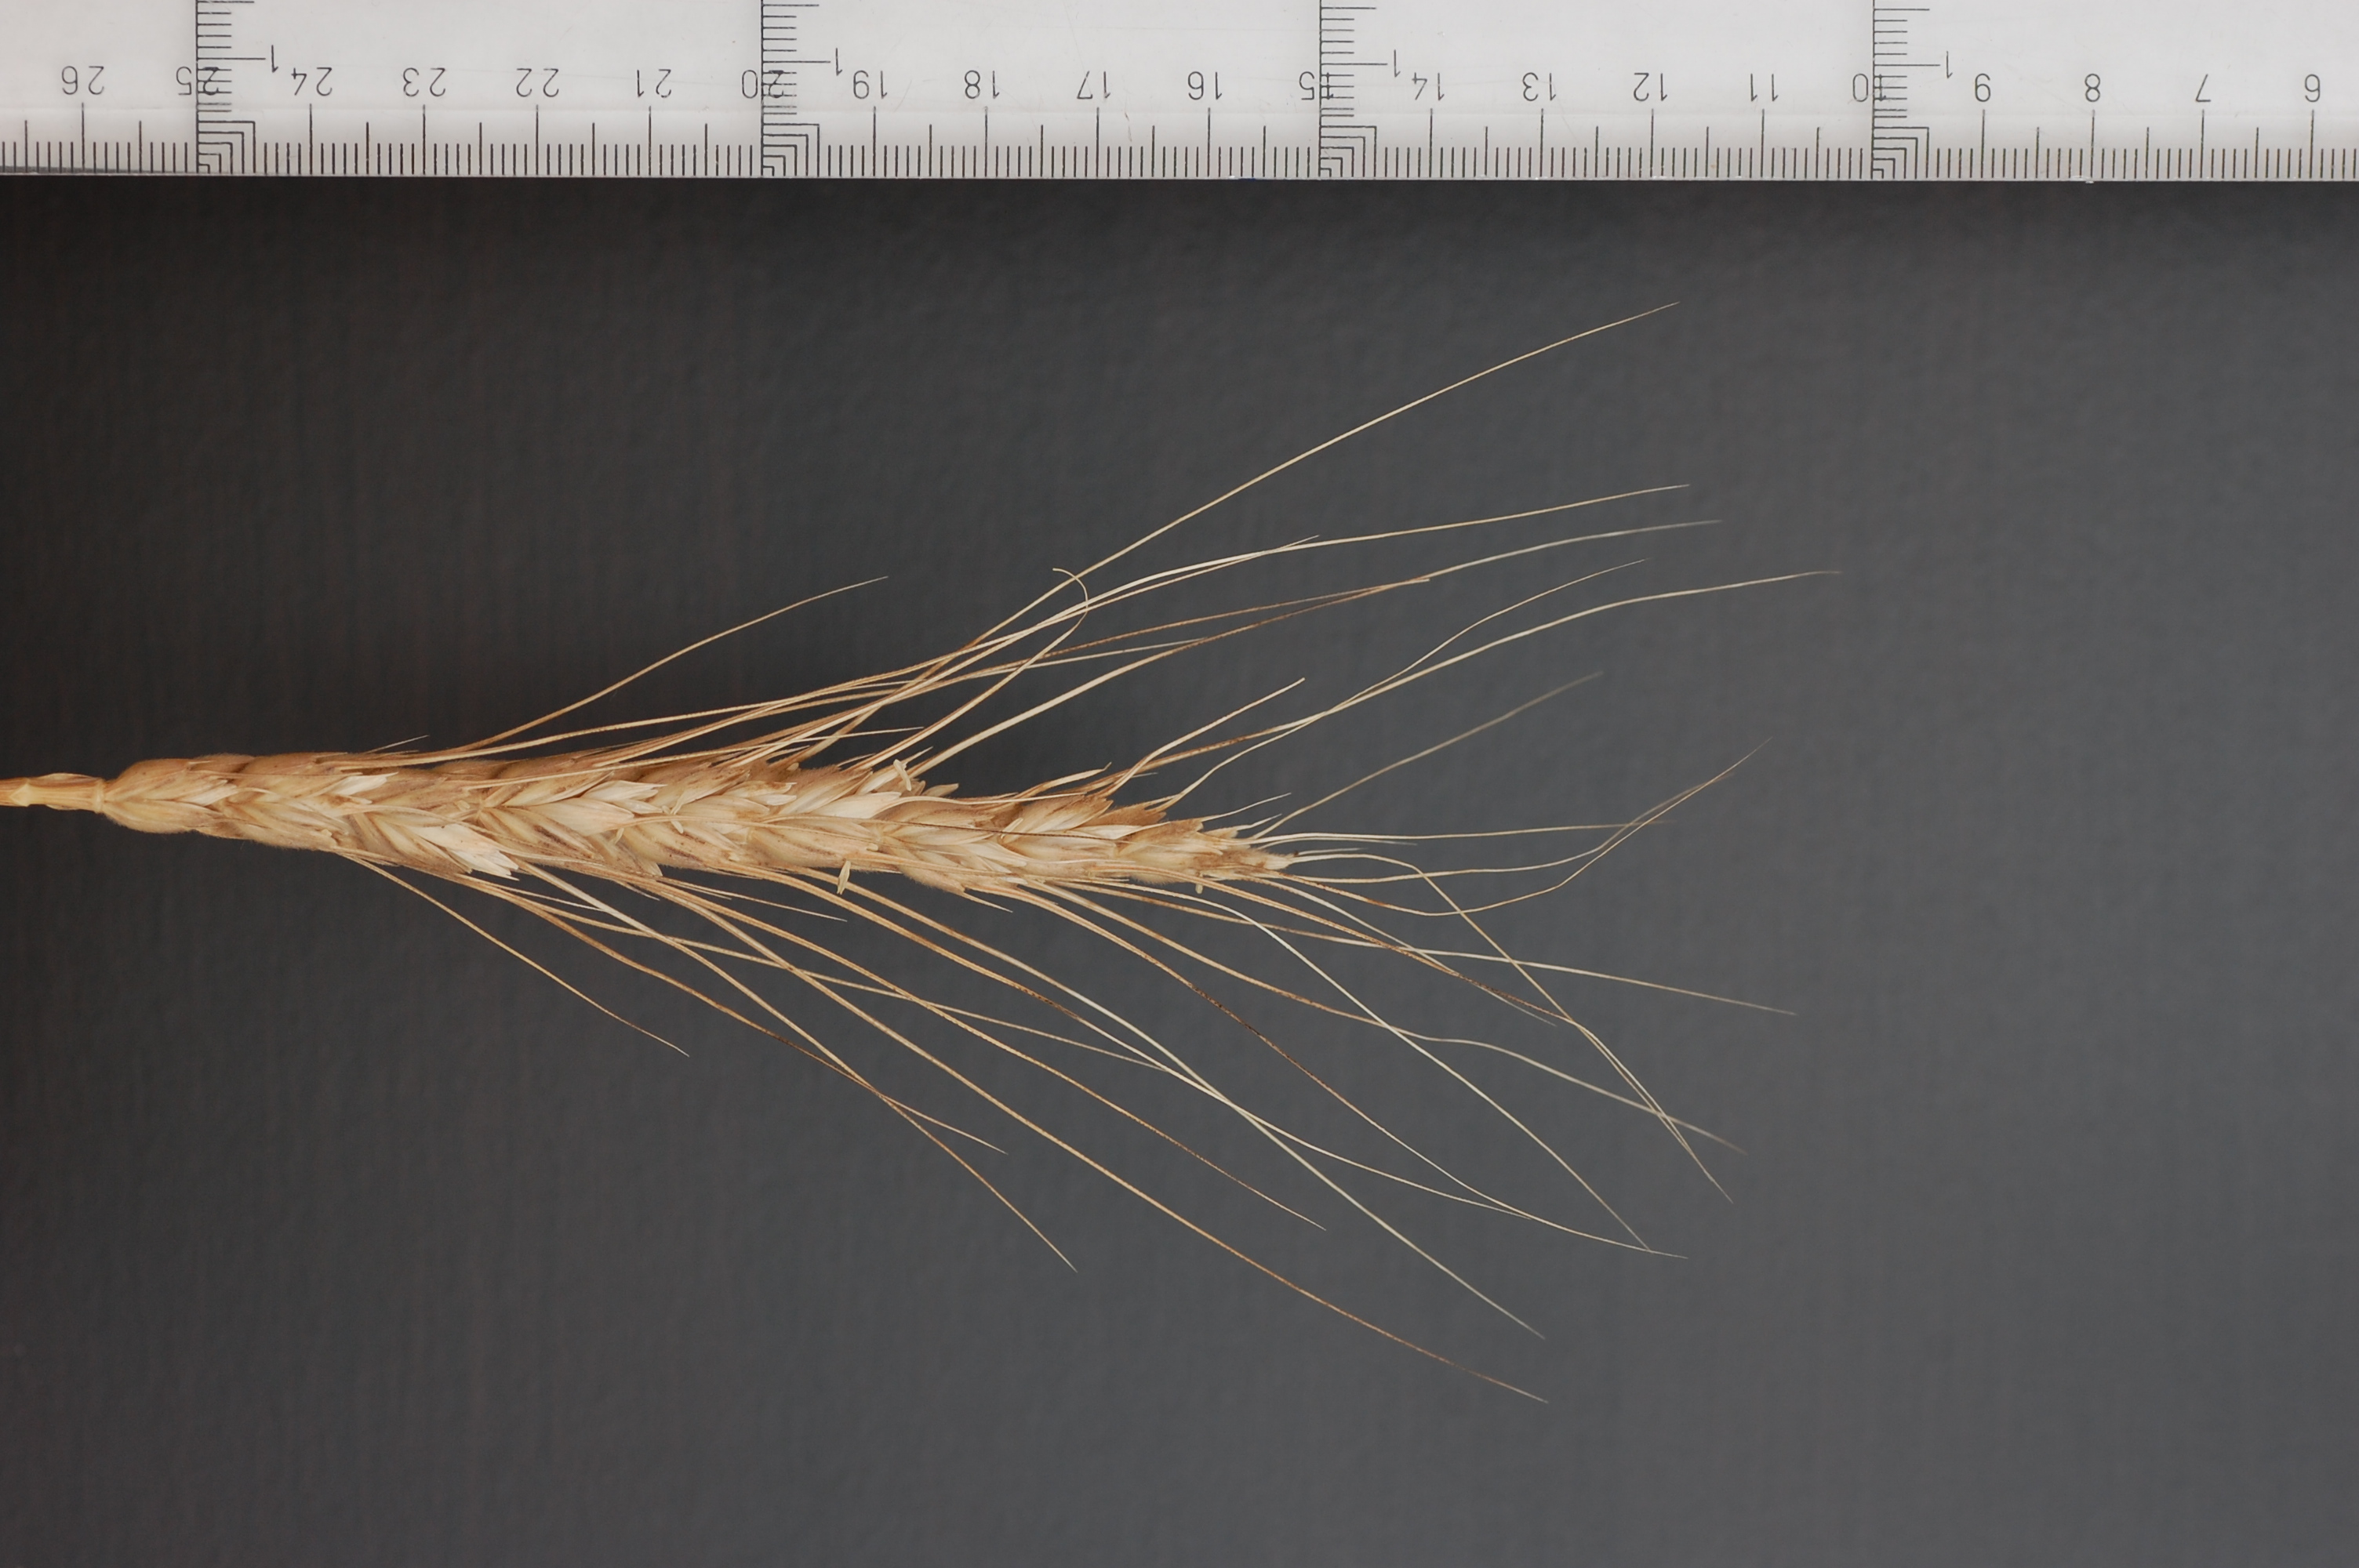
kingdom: Plantae
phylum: Tracheophyta
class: Liliopsida
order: Poales
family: Poaceae
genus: Triticum
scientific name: Triticum aestivum
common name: Common wheat
